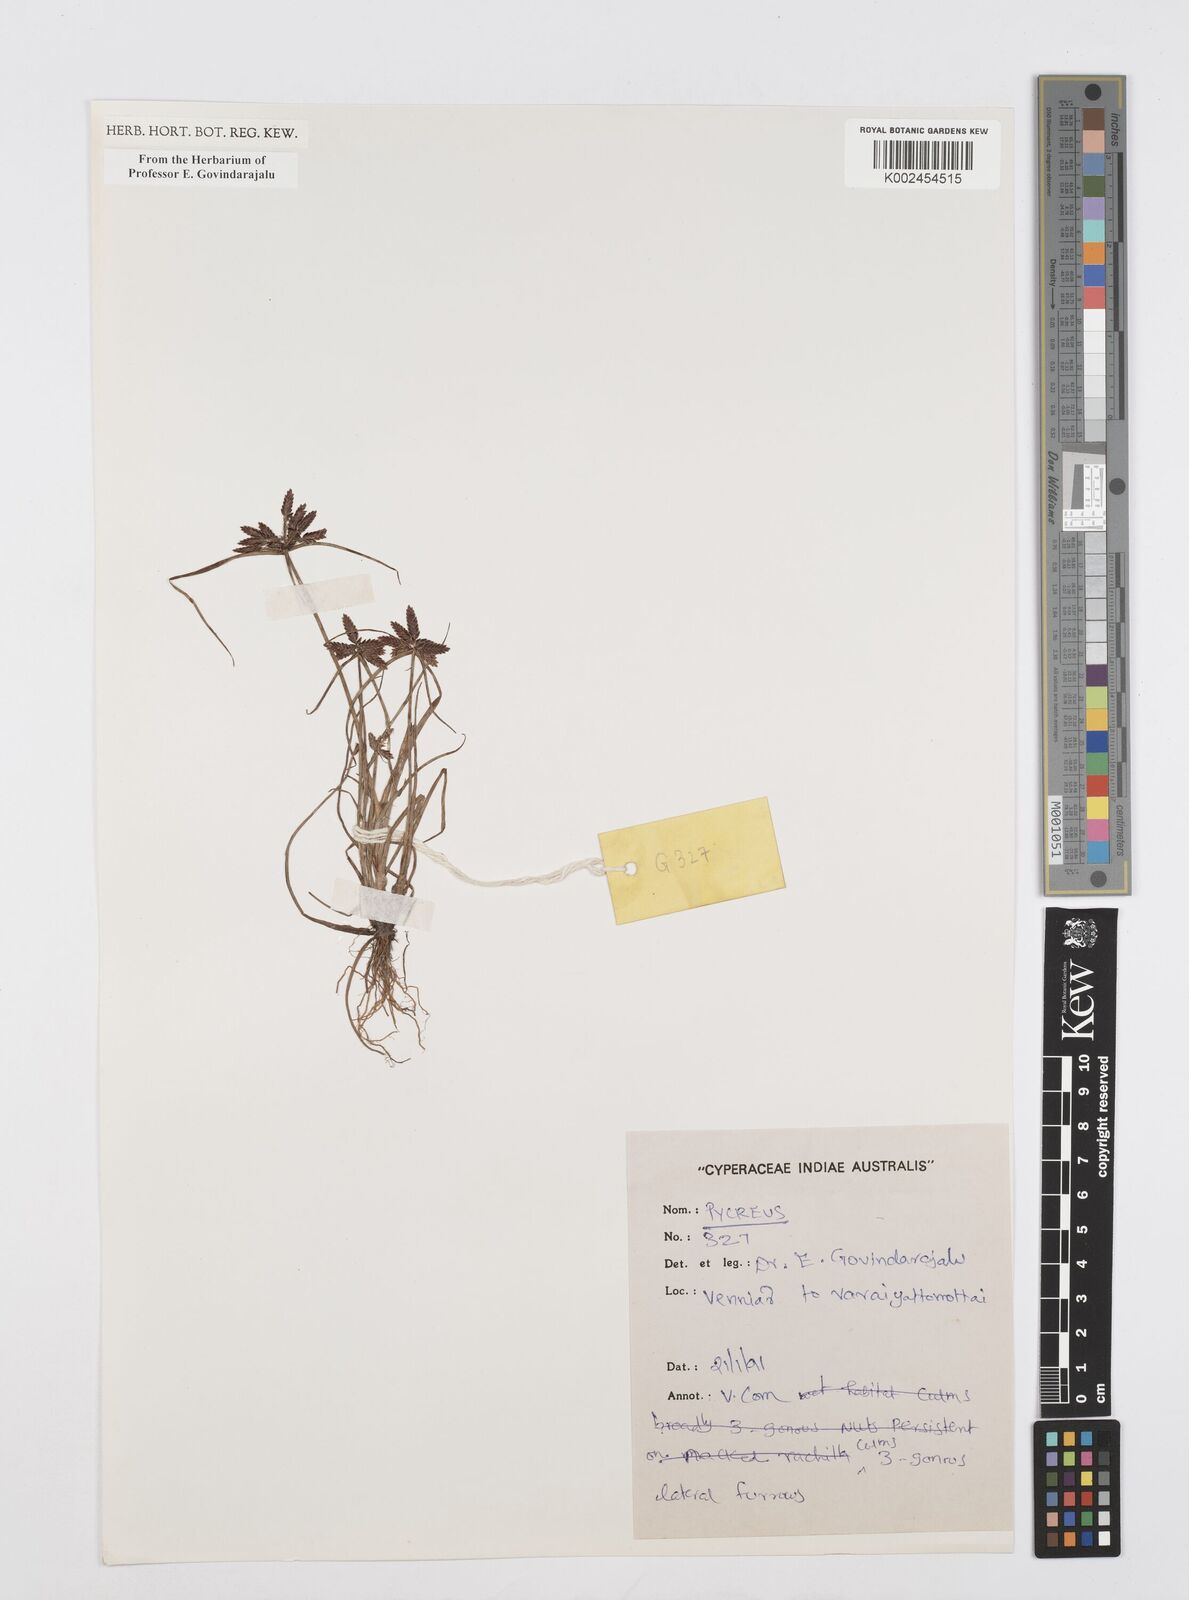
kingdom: Plantae
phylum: Tracheophyta
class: Liliopsida
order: Poales
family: Cyperaceae
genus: Cyperus
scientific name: Cyperus
